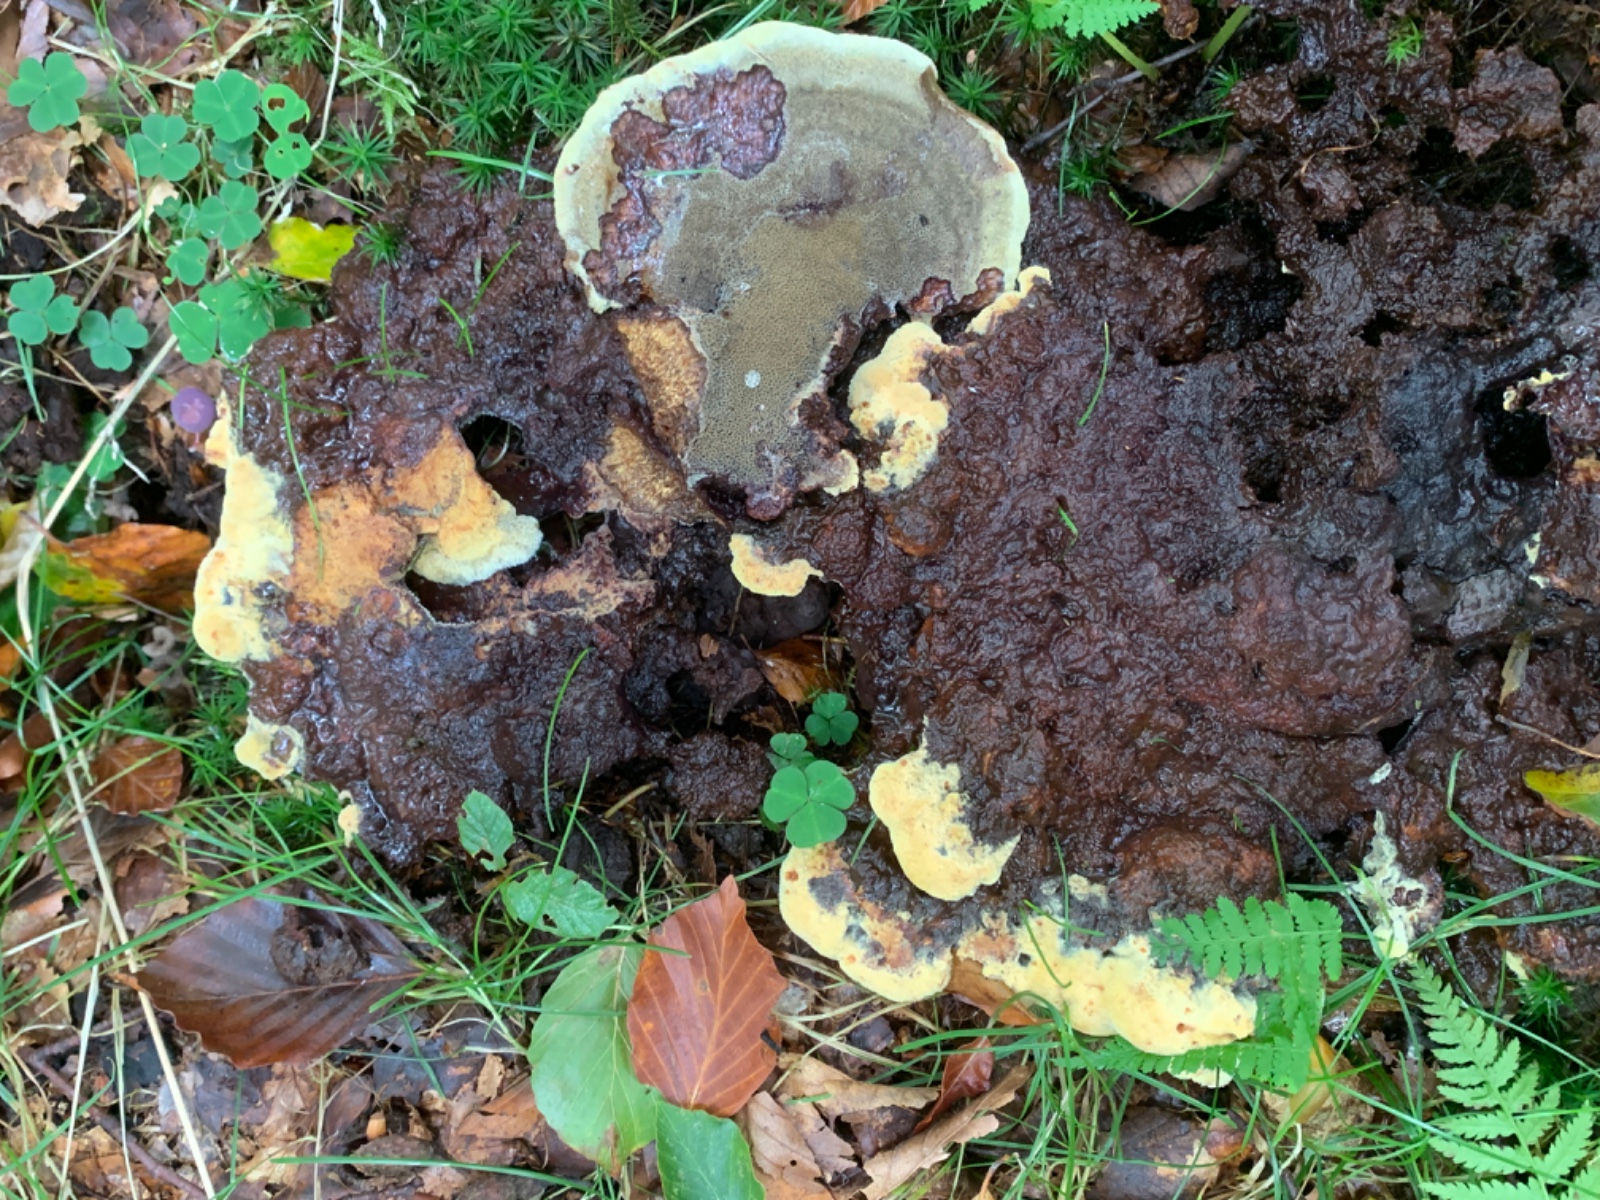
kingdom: Fungi
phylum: Basidiomycota
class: Agaricomycetes
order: Polyporales
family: Laetiporaceae
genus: Phaeolus
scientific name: Phaeolus schweinitzii
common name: brunporesvamp
